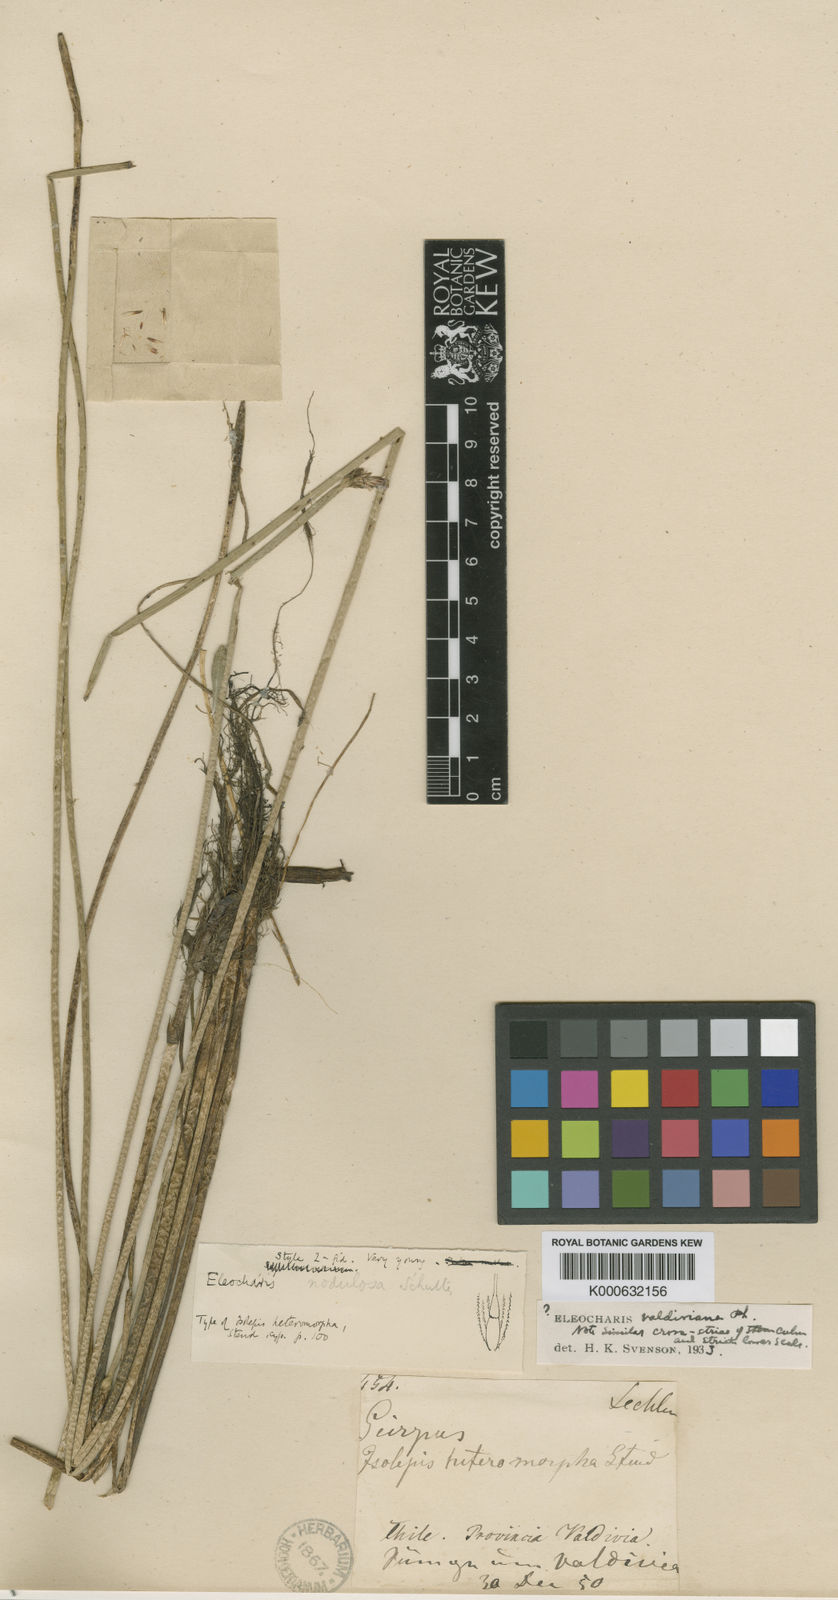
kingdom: Plantae
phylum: Tracheophyta
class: Liliopsida
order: Poales
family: Cyperaceae
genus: Eleocharis
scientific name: Eleocharis montana
